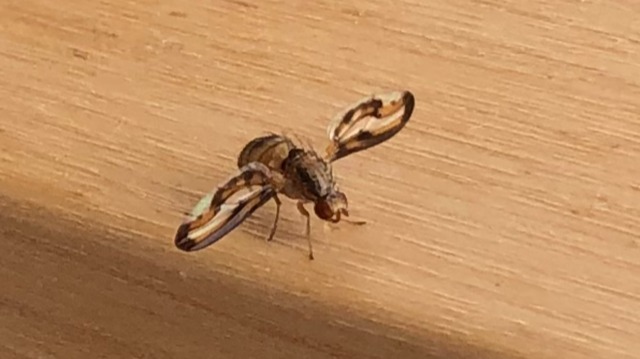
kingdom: Animalia
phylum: Arthropoda
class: Insecta
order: Diptera
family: Pallopteridae
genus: Toxonevra
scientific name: Toxonevra muliebris
